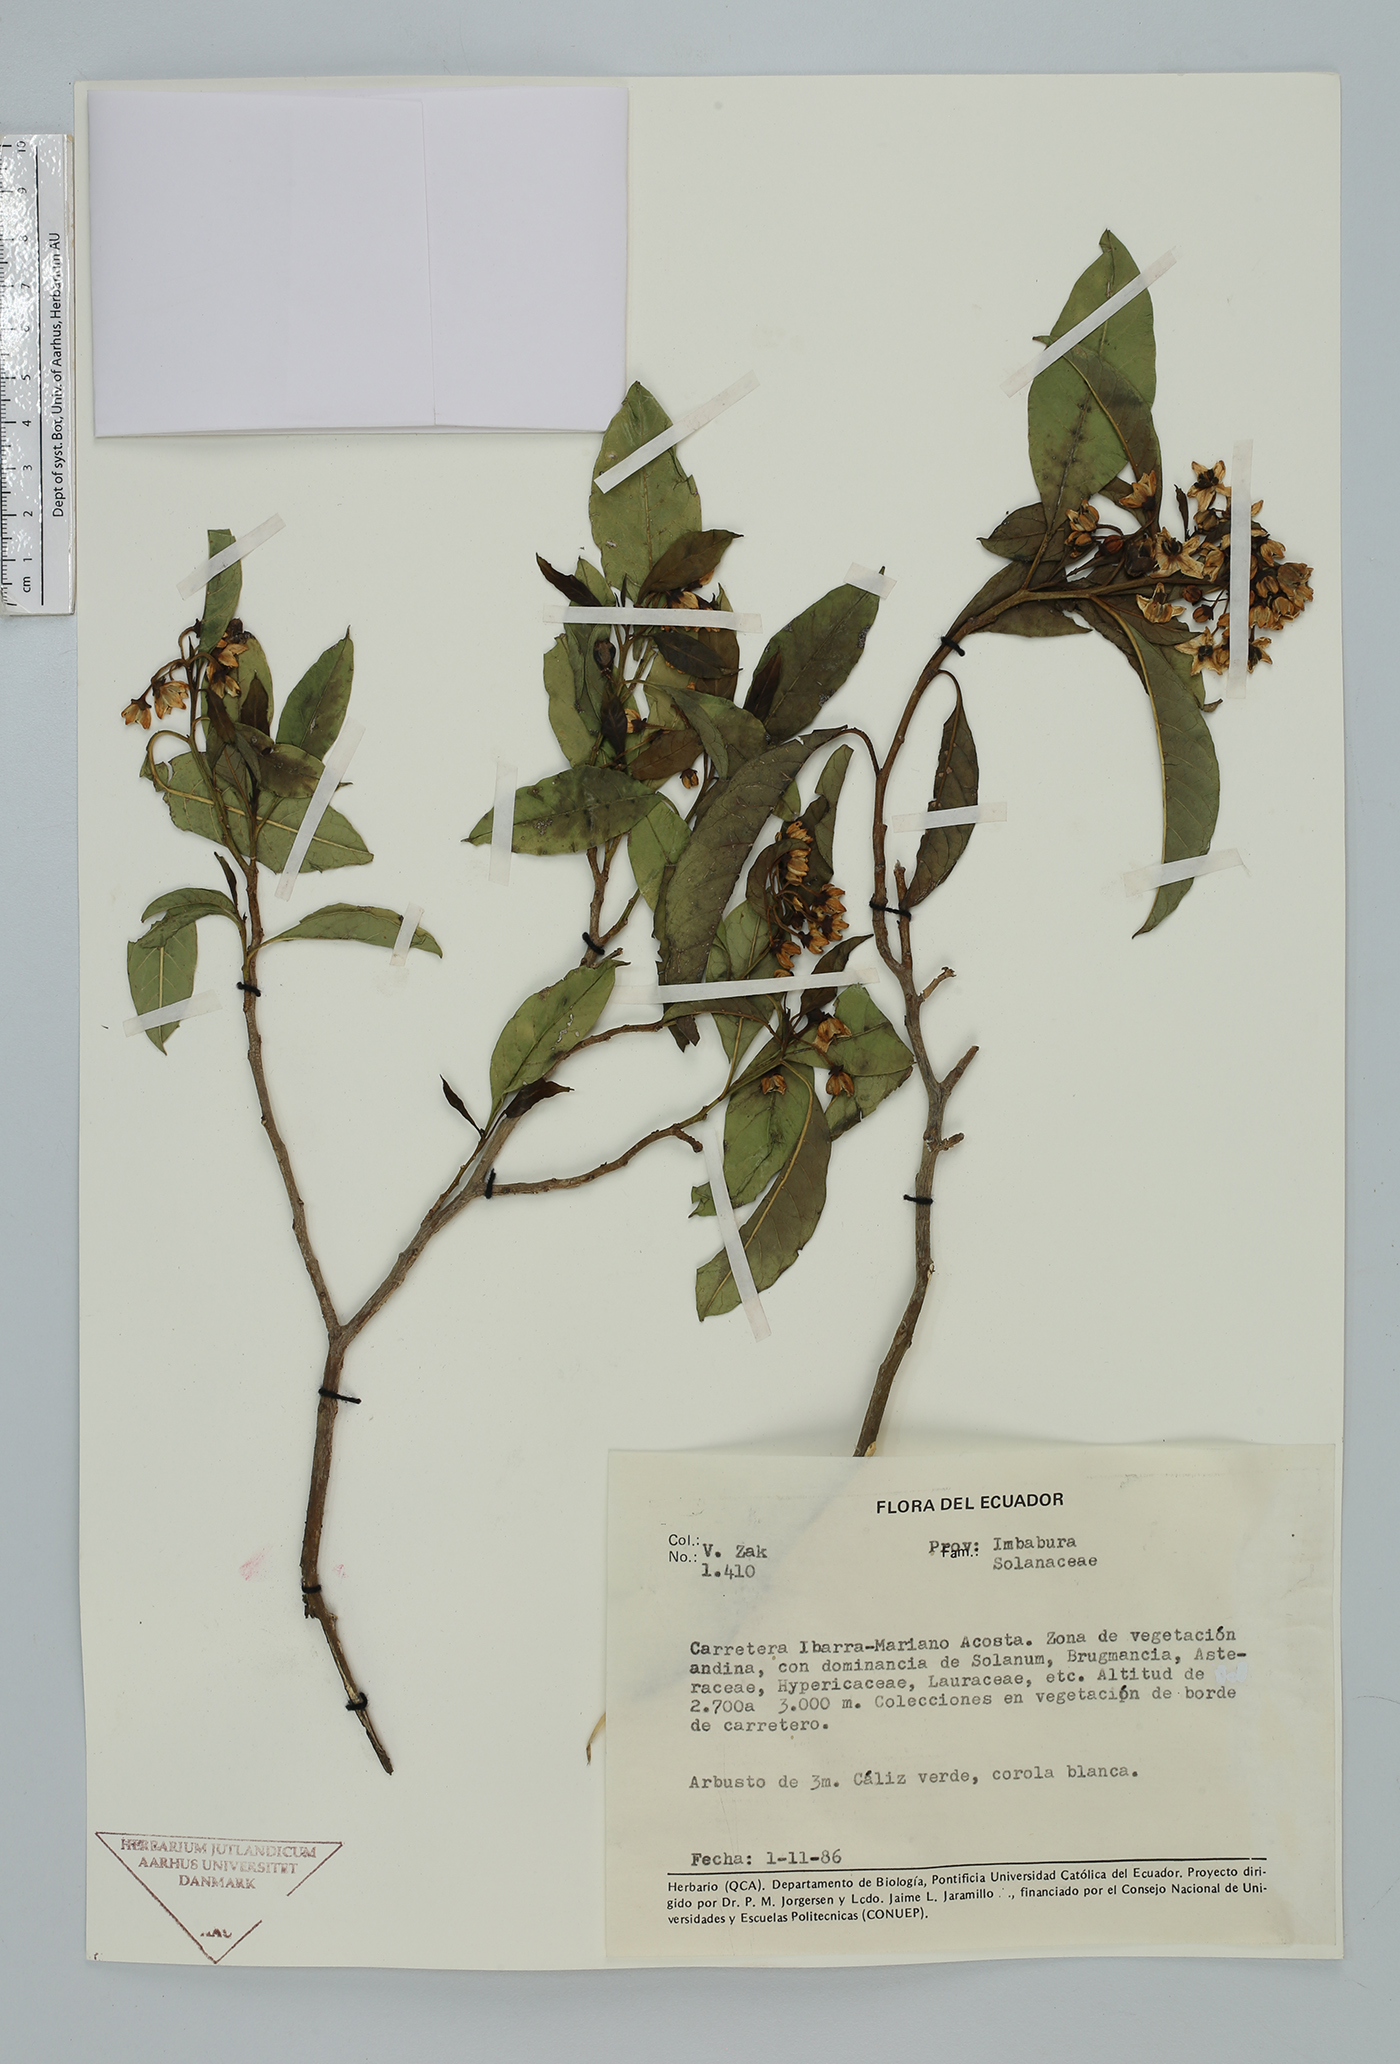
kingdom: Plantae
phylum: Tracheophyta
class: Magnoliopsida
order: Solanales
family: Solanaceae
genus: Solanum
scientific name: Solanum
